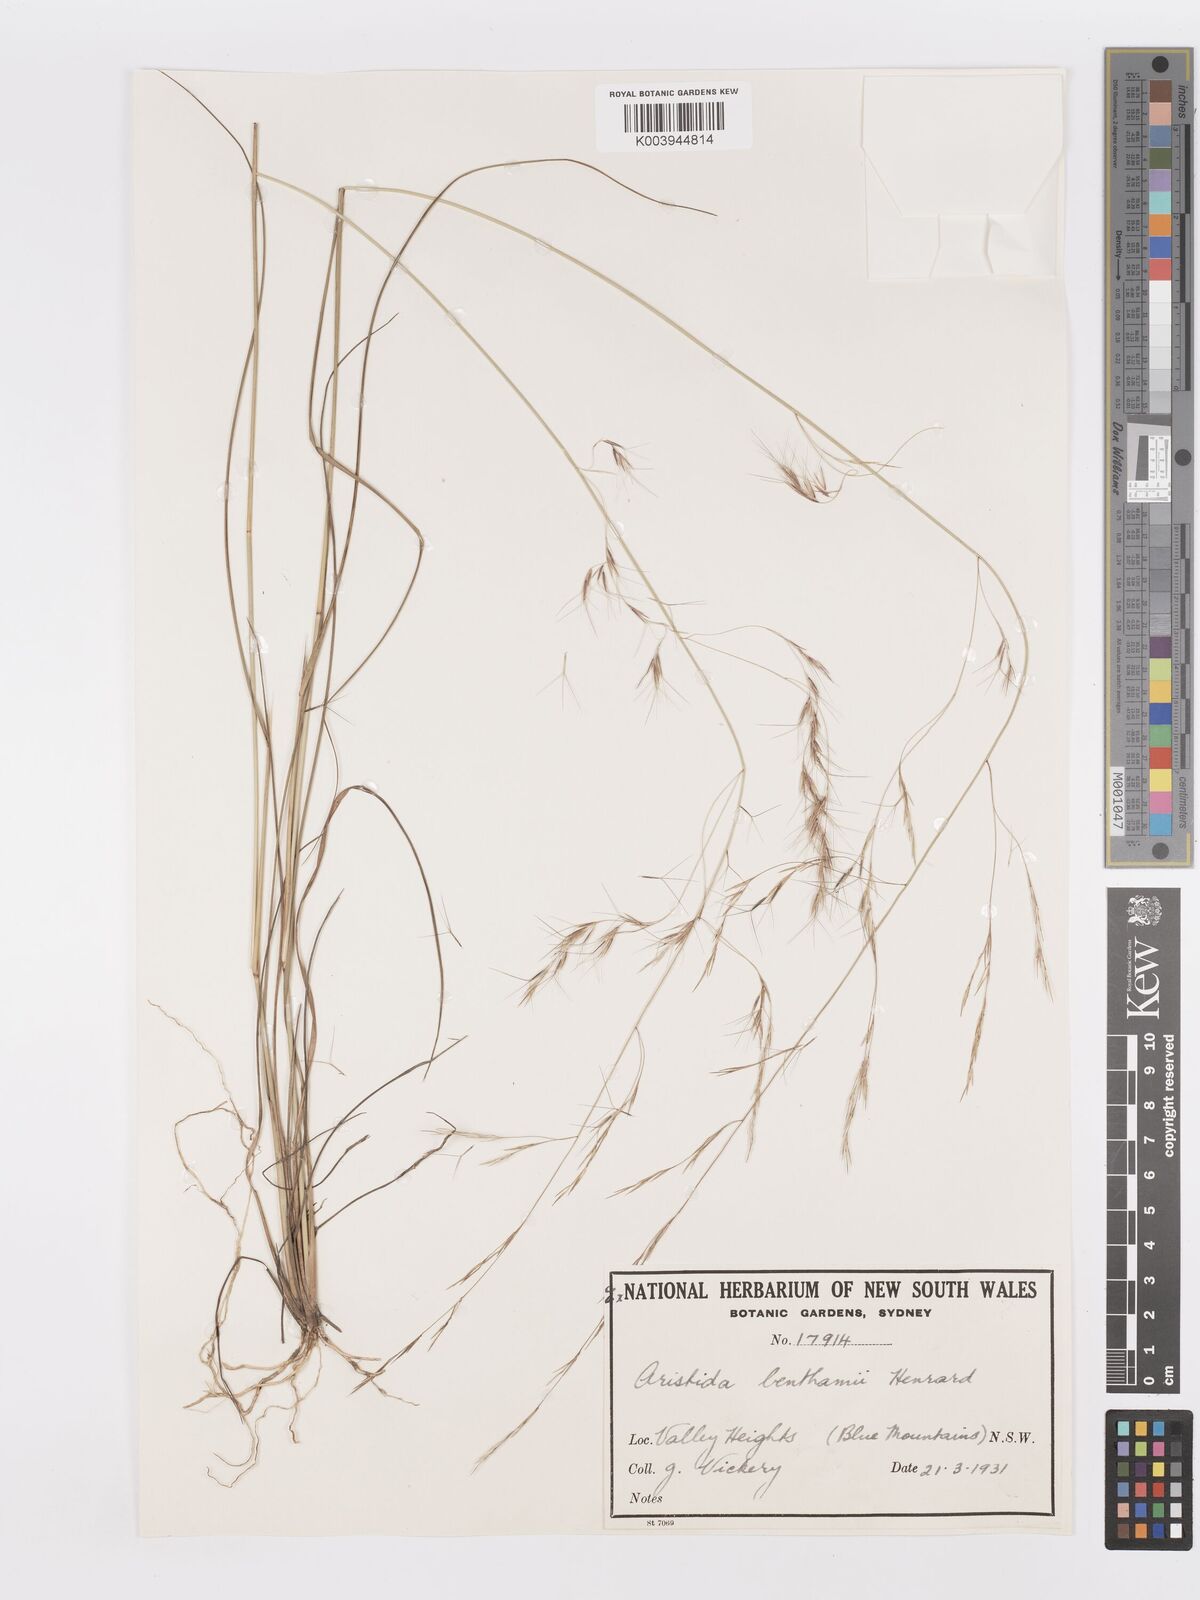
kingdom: Plantae
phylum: Tracheophyta
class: Liliopsida
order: Poales
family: Poaceae
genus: Aristida
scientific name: Aristida benthamii
